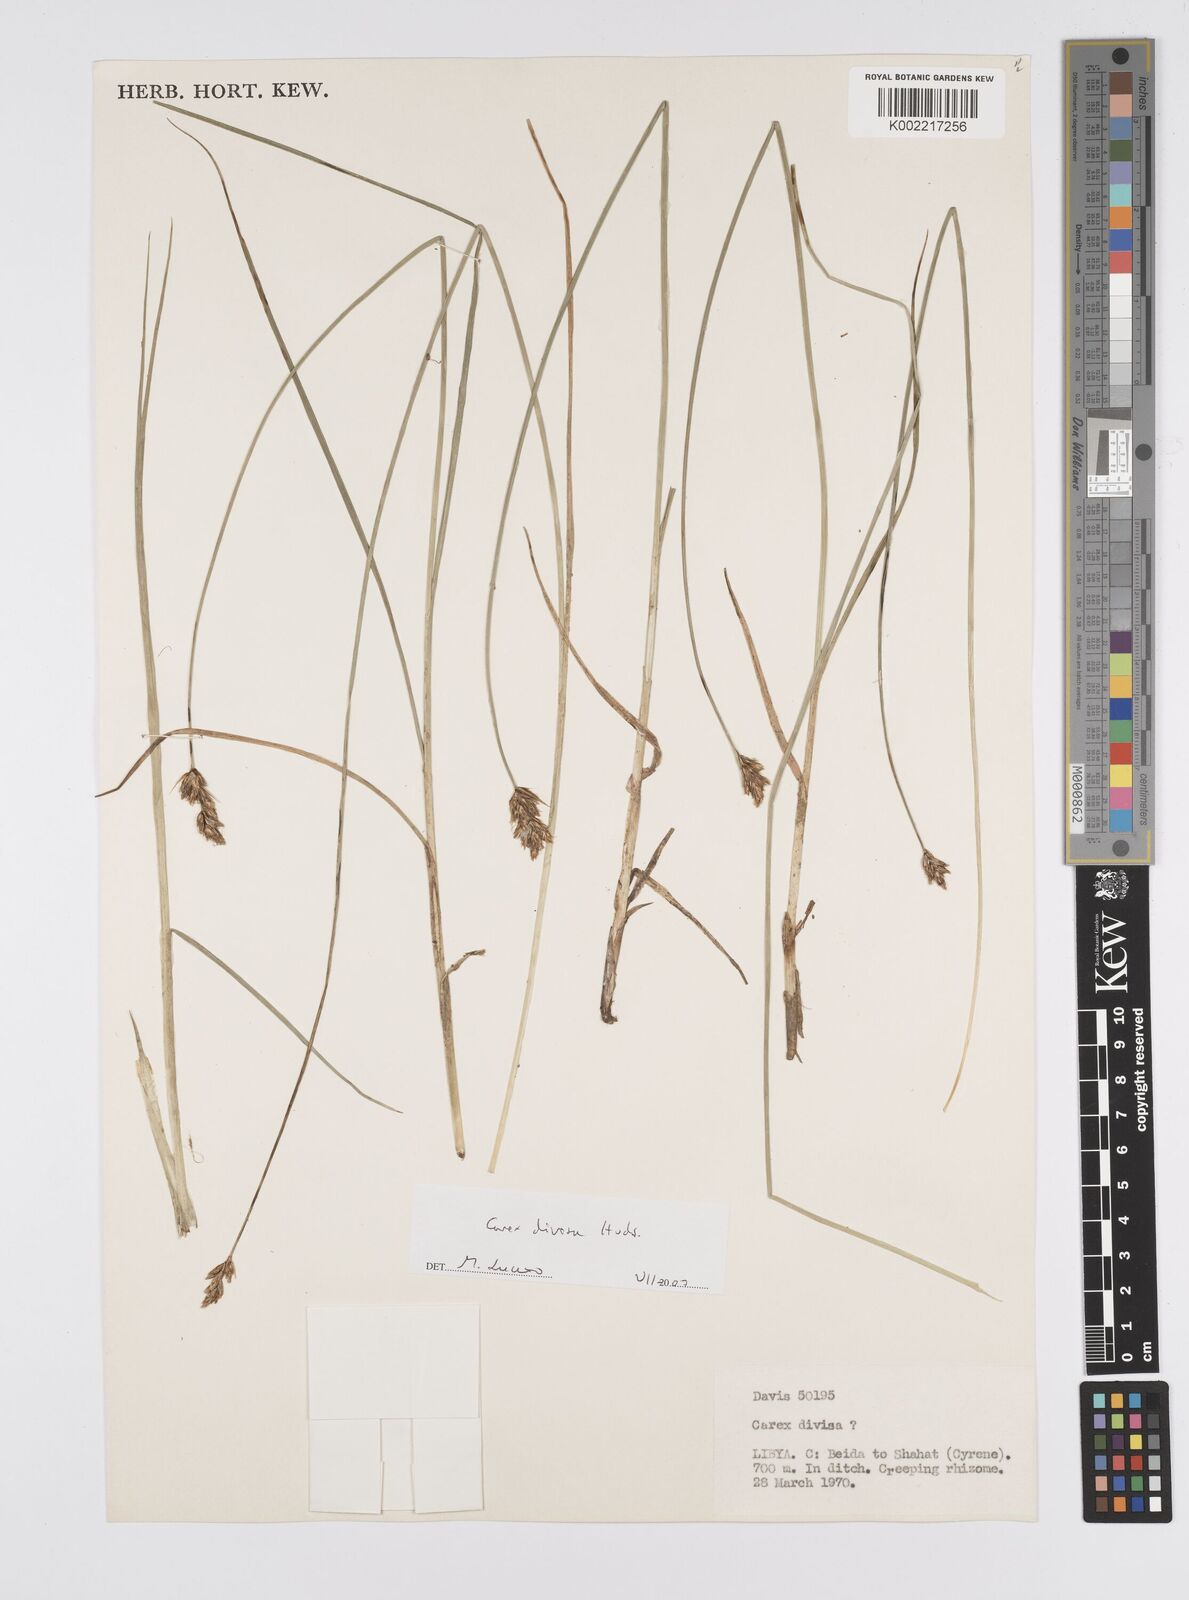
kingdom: Plantae
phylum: Tracheophyta
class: Liliopsida
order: Poales
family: Cyperaceae
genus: Carex
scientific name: Carex divisa
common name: Divided sedge
